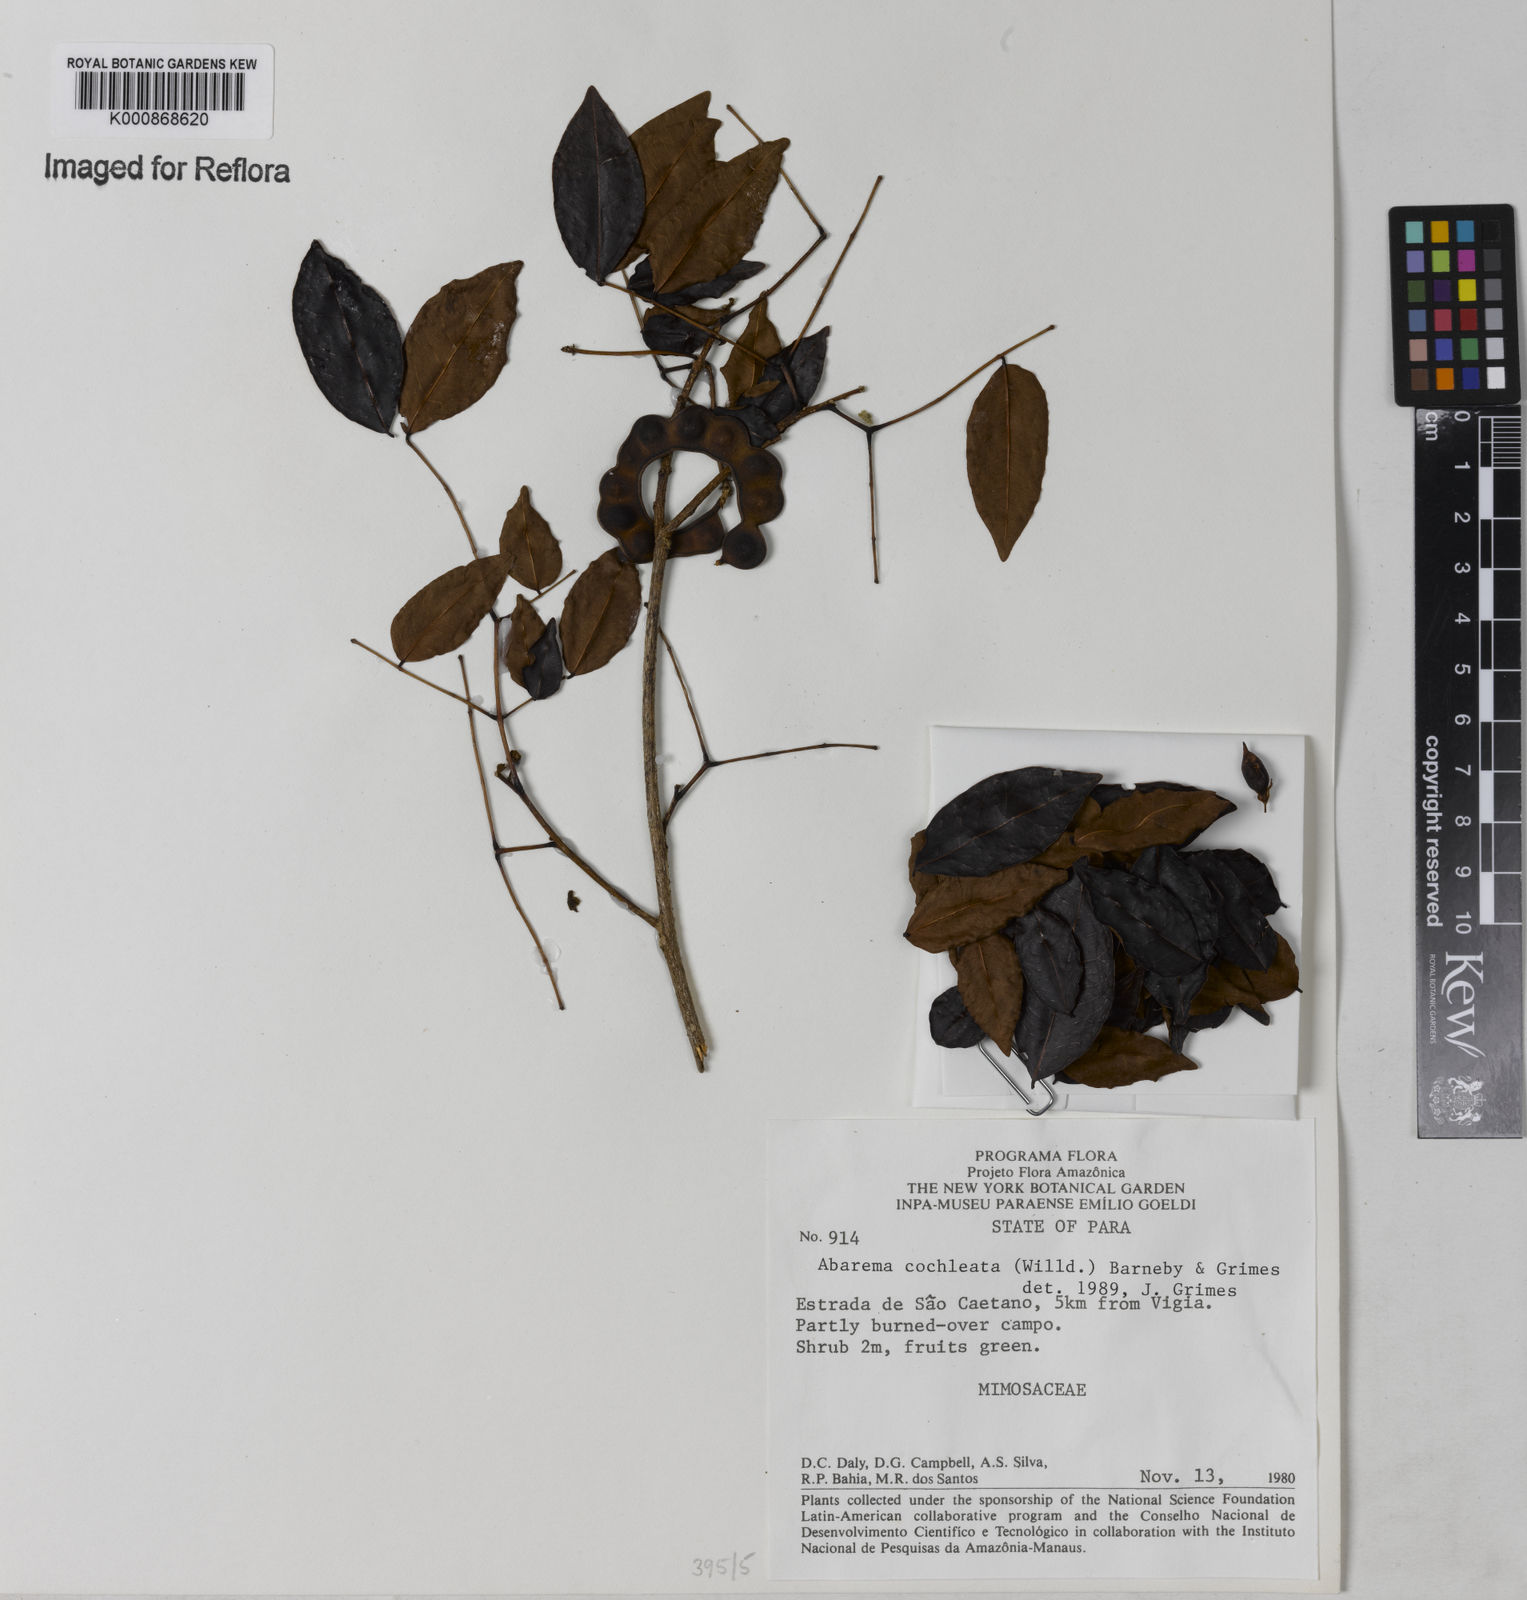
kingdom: Plantae
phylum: Tracheophyta
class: Magnoliopsida
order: Fabales
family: Fabaceae
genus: Jupunba
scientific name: Jupunba cochleata
